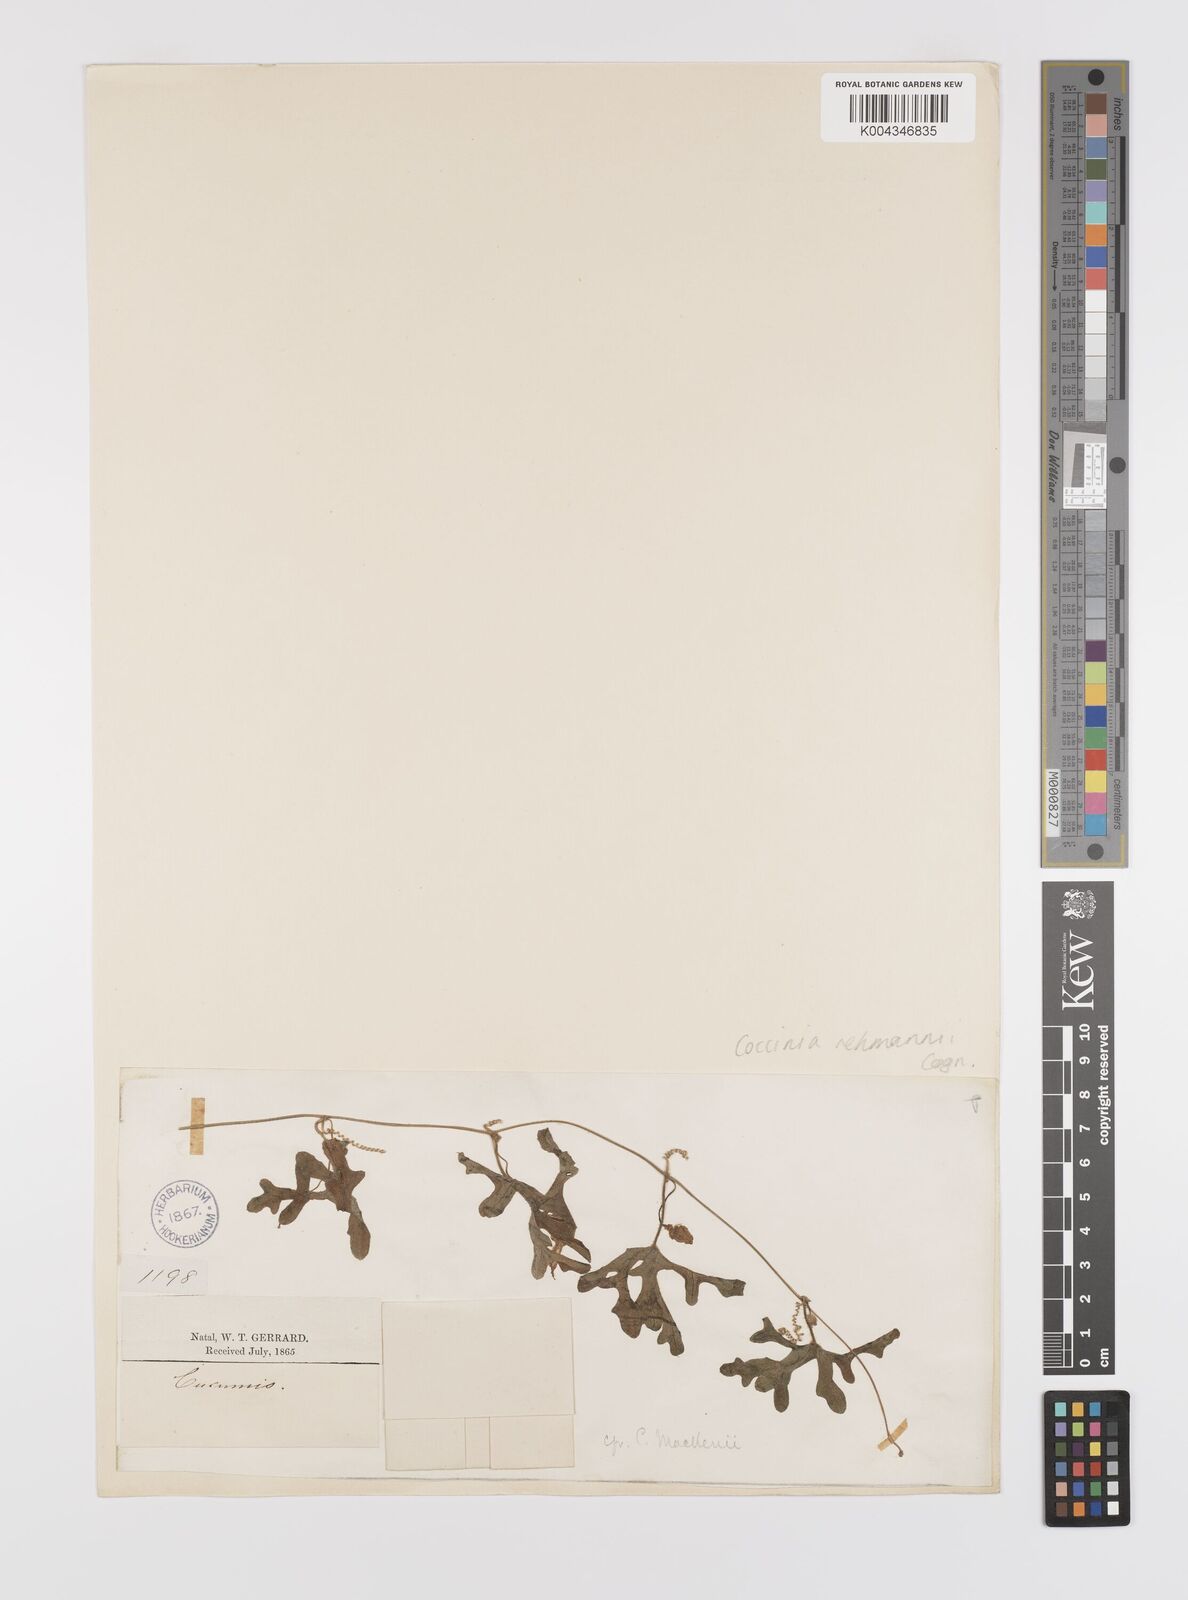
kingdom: Plantae
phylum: Tracheophyta
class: Magnoliopsida
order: Cucurbitales
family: Cucurbitaceae
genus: Coccinia
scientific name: Coccinia rehmannii
